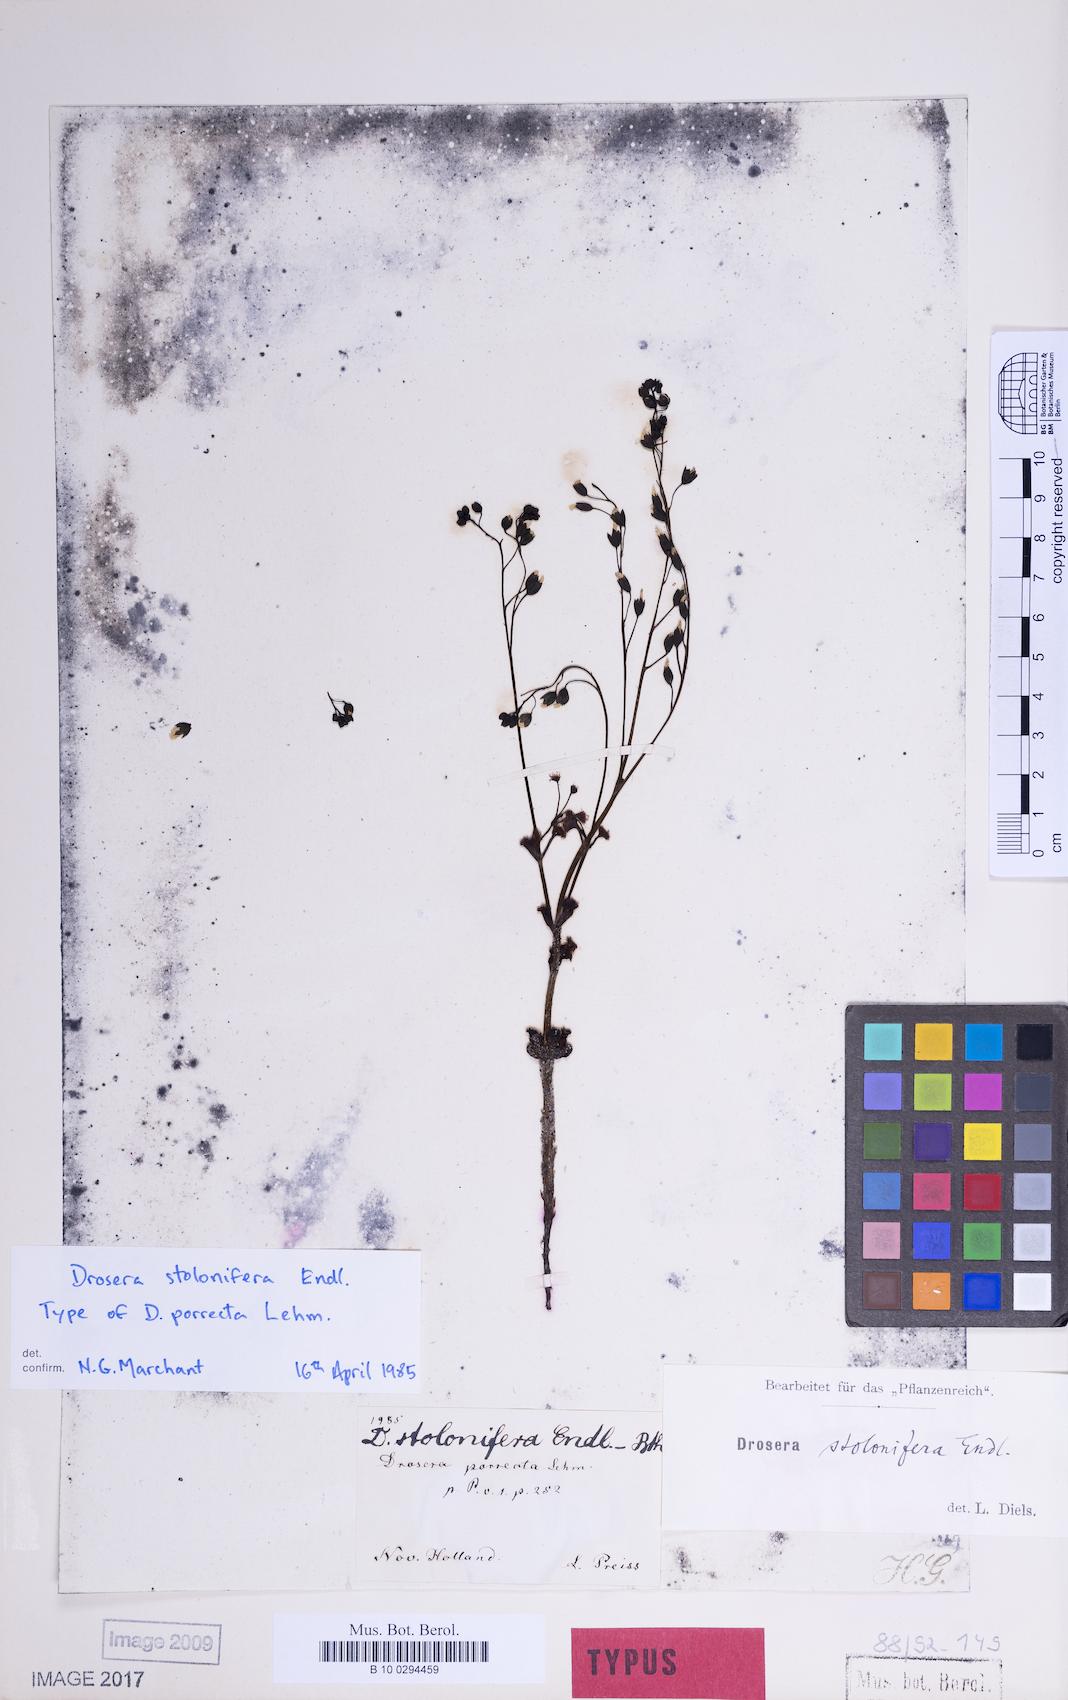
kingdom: Plantae
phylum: Tracheophyta
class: Magnoliopsida
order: Caryophyllales
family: Droseraceae
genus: Drosera
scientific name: Drosera stolonifera
